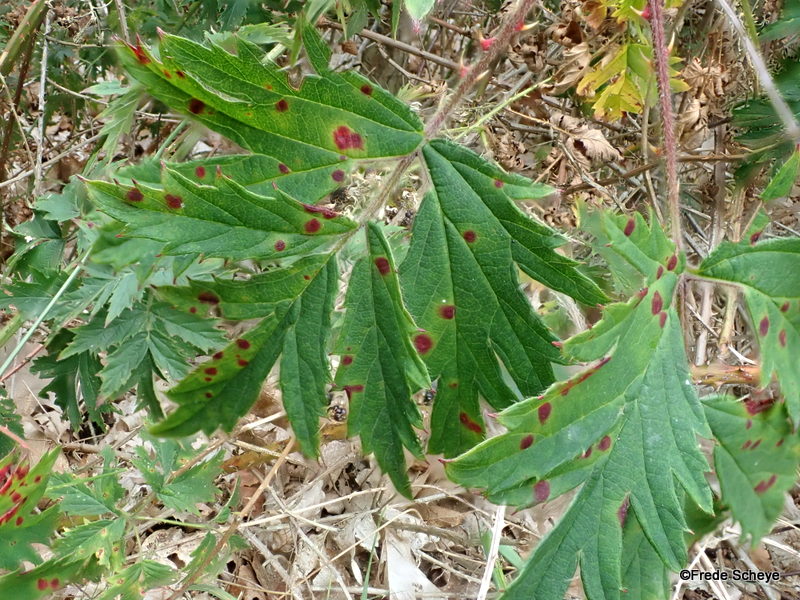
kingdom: Fungi
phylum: Basidiomycota
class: Pucciniomycetes
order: Pucciniales
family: Phragmidiaceae
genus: Phragmidium
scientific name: Phragmidium violaceum
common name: violet flercellerust
